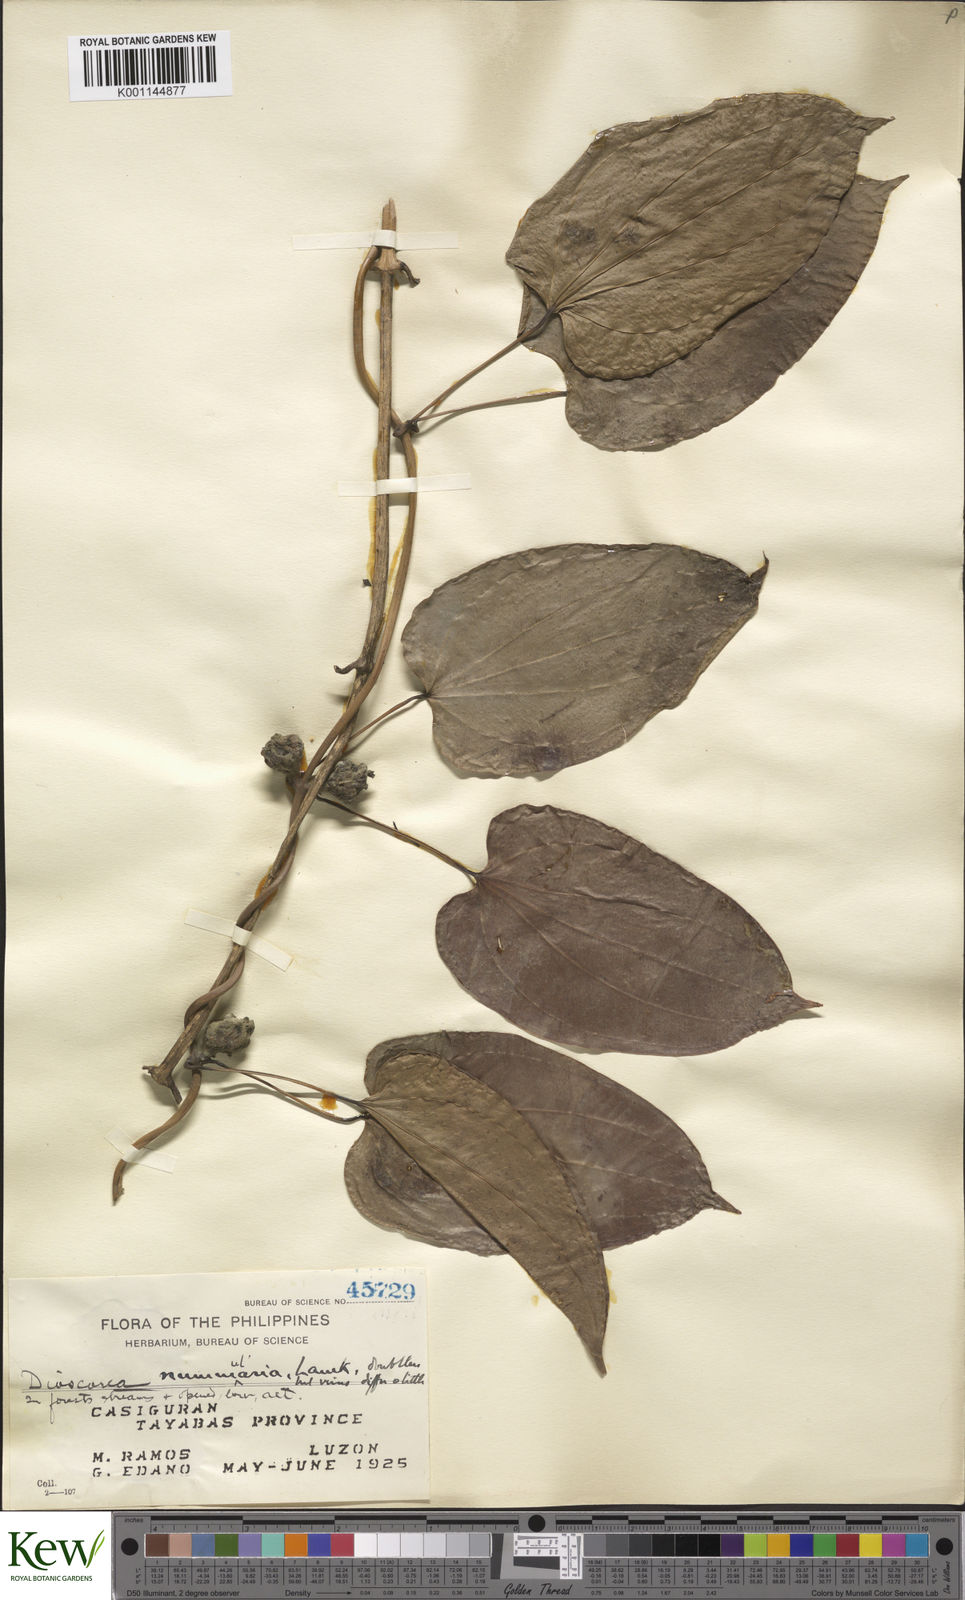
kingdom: Plantae
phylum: Tracheophyta
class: Liliopsida
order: Dioscoreales
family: Dioscoreaceae
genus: Dioscorea
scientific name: Dioscorea nummularia
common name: Pacific yam
